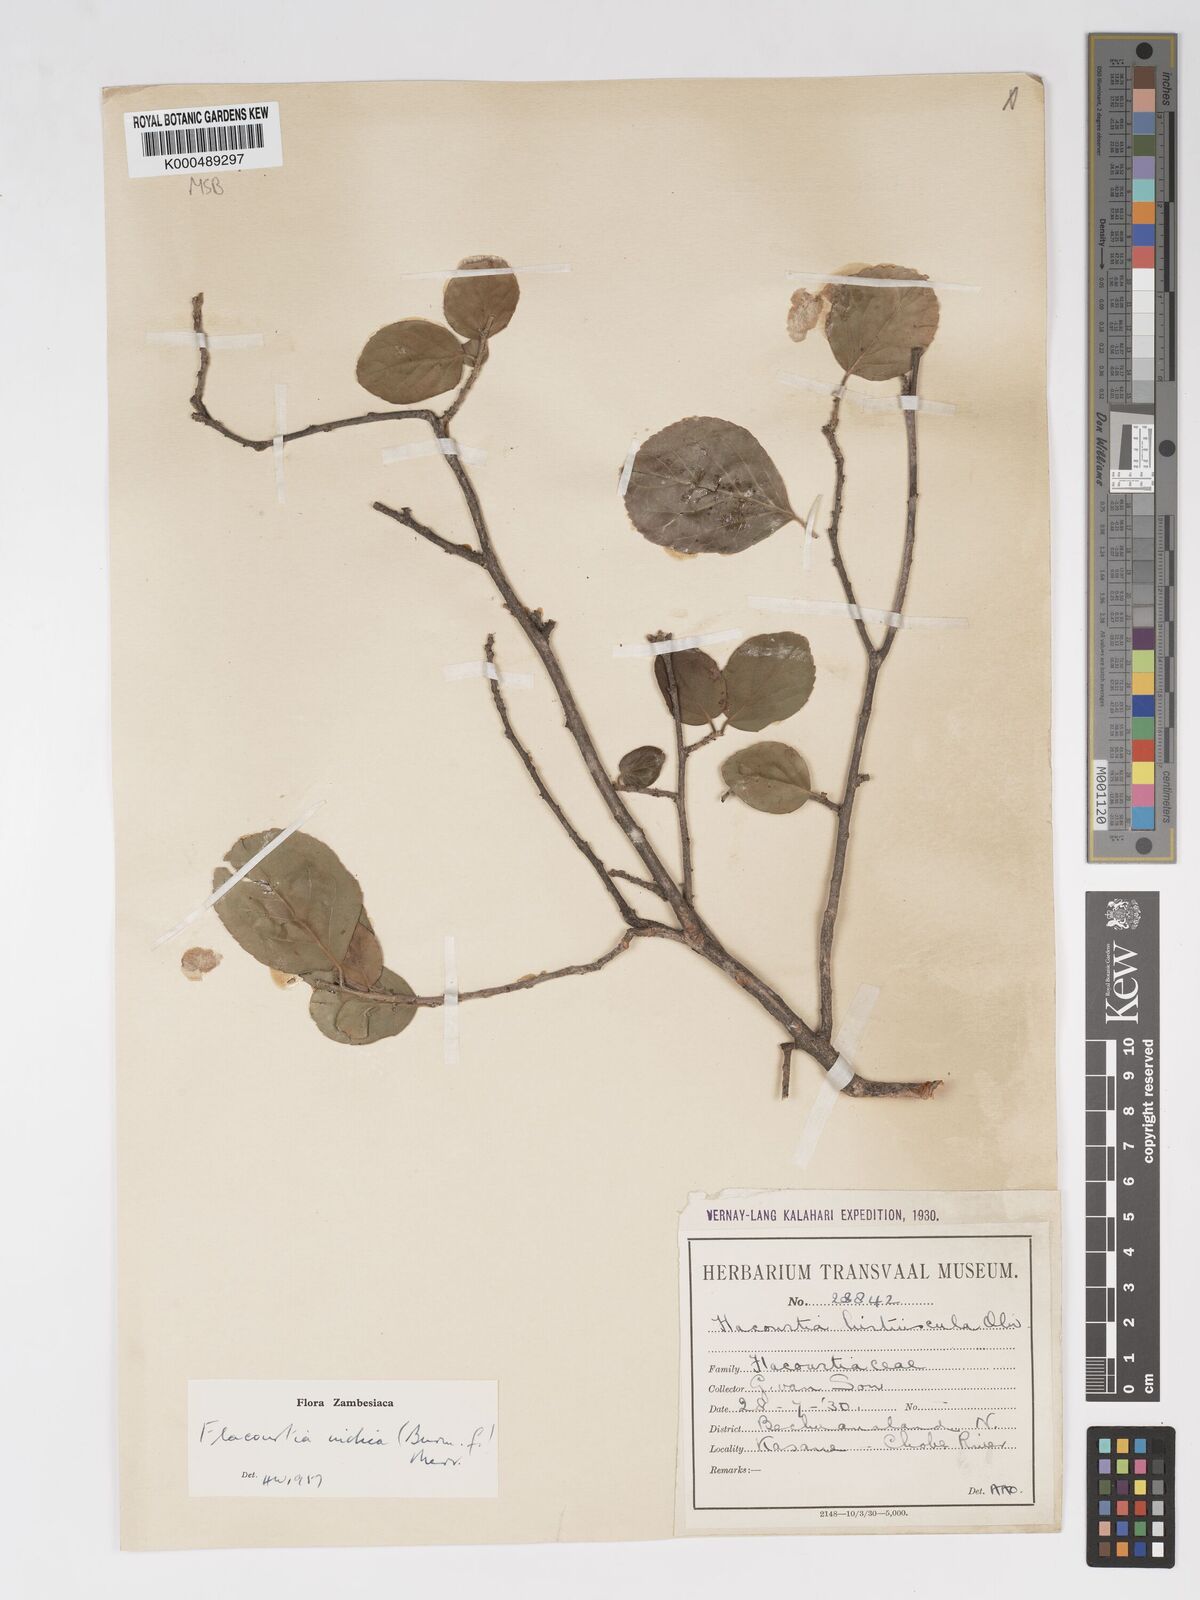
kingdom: Plantae
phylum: Tracheophyta
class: Magnoliopsida
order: Malpighiales
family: Salicaceae
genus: Flacourtia
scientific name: Flacourtia indica
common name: Governor's plum
